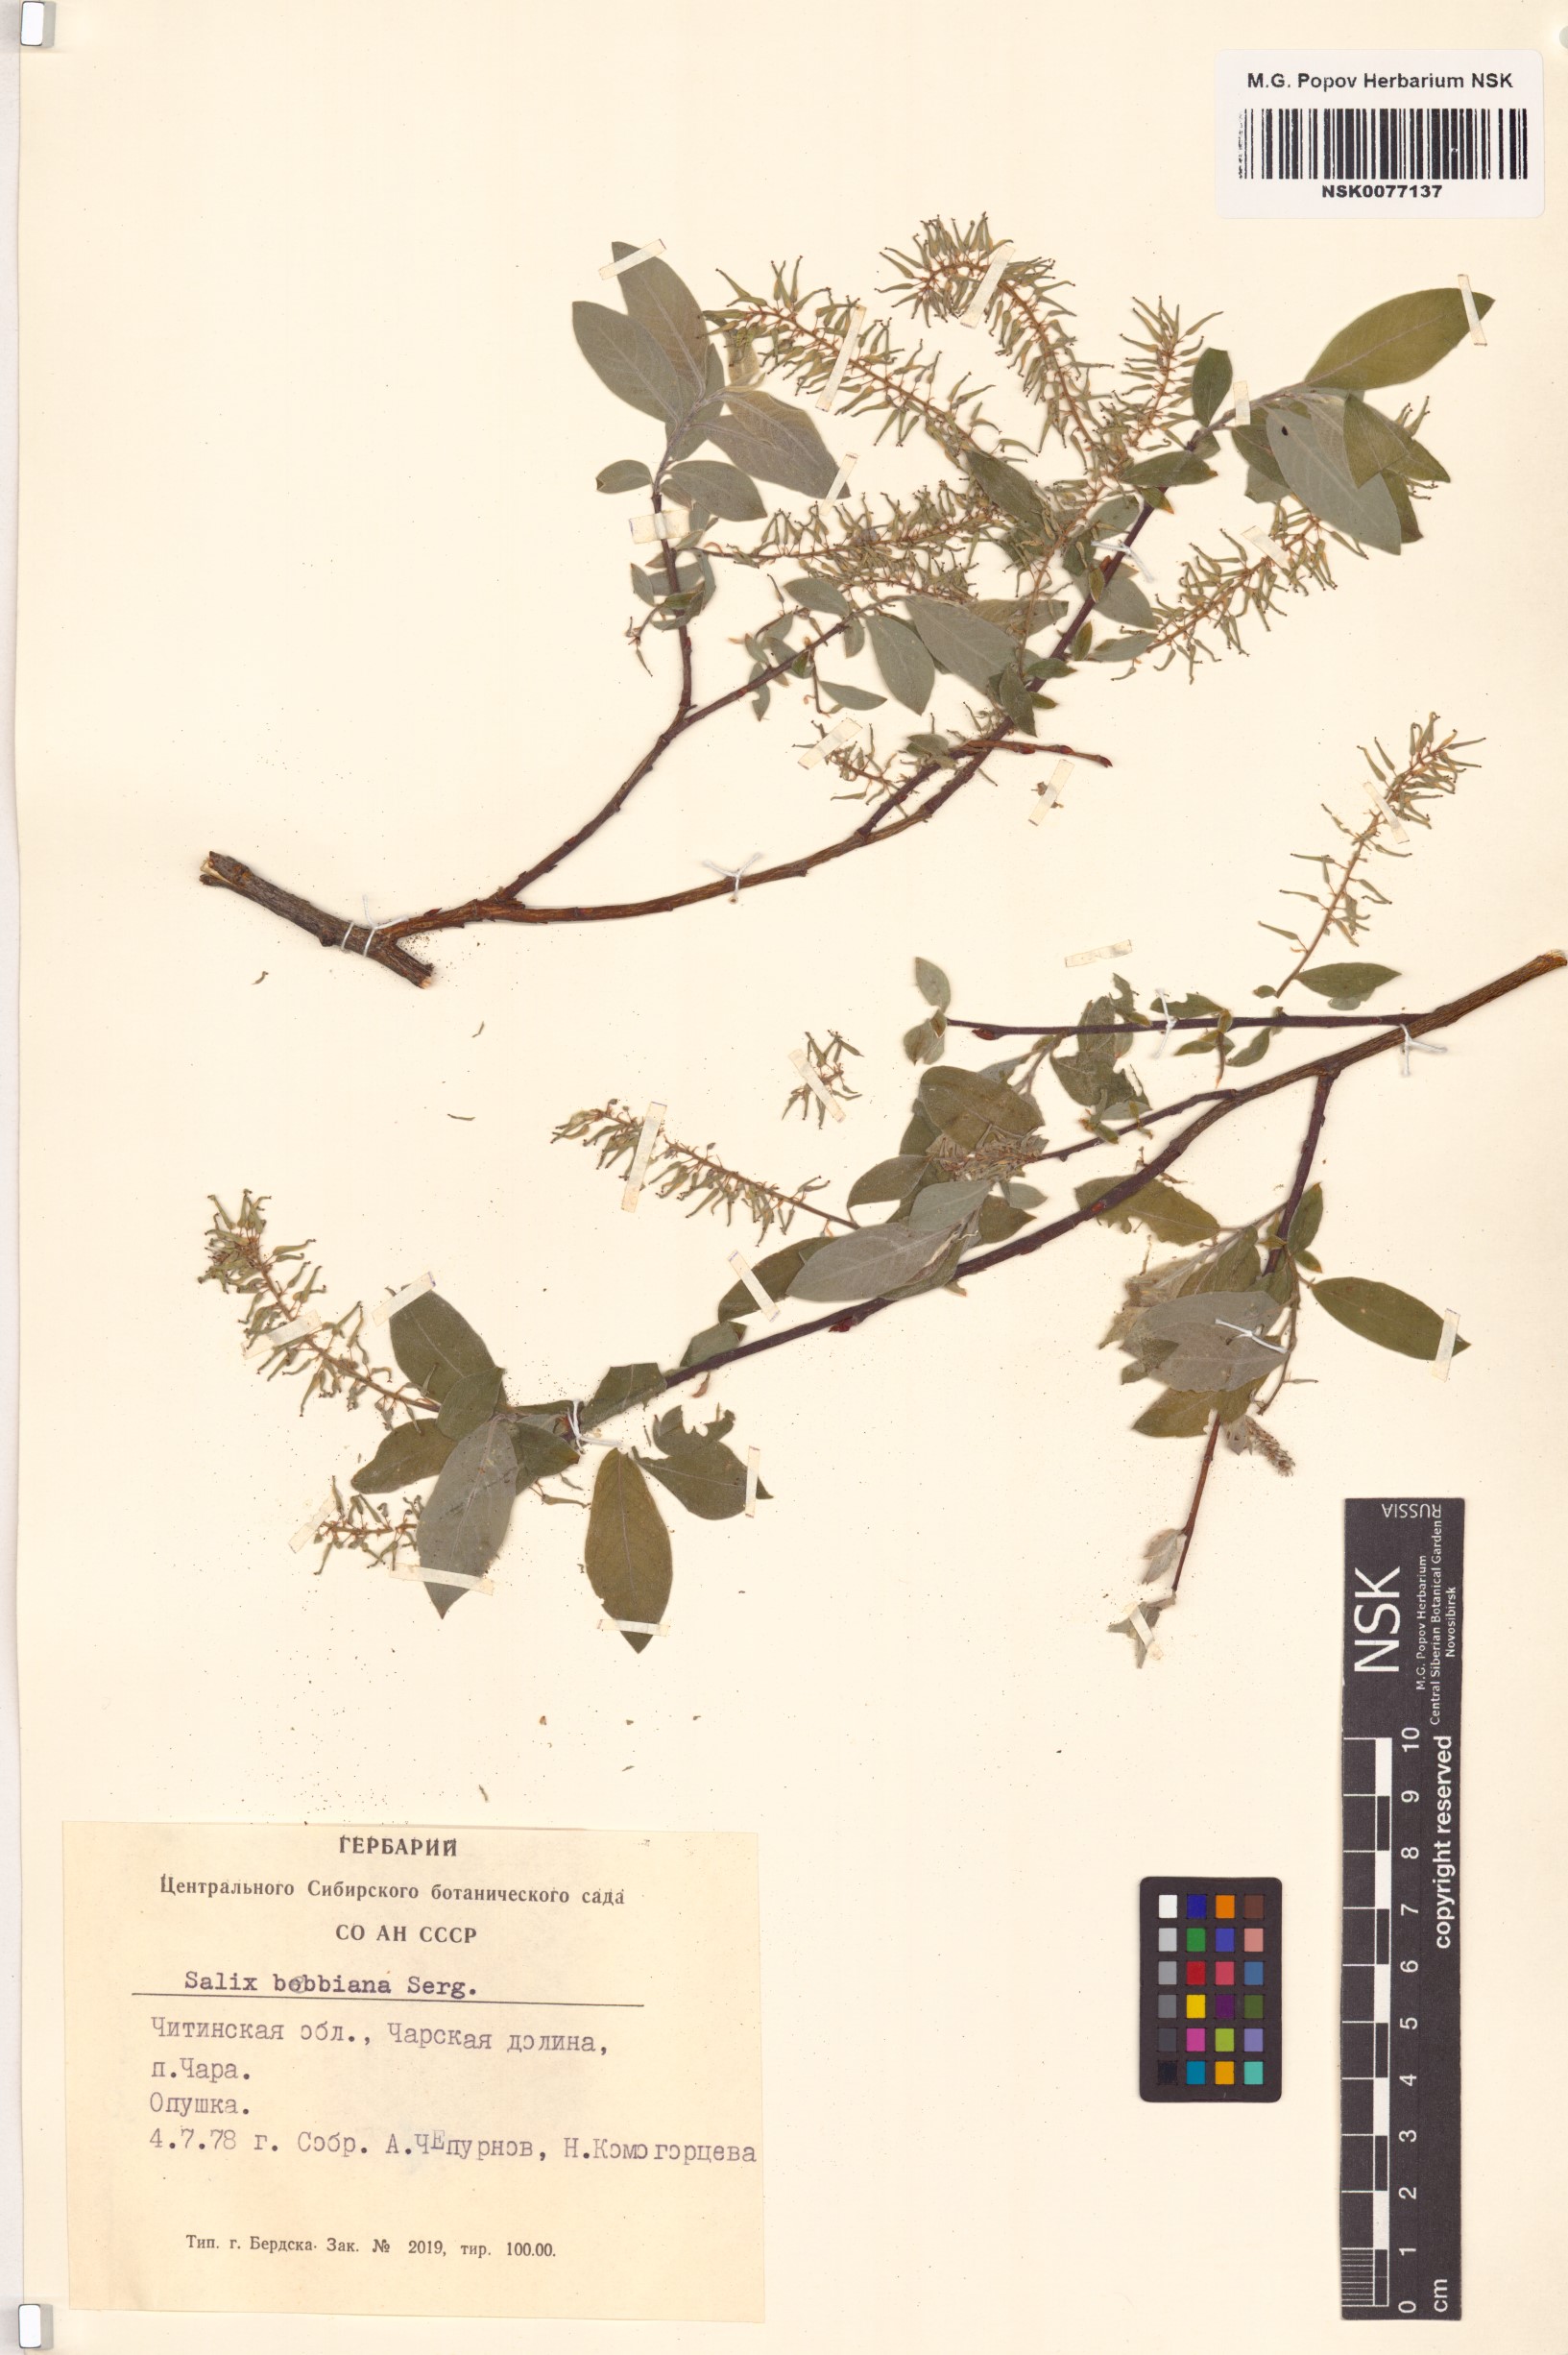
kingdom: Plantae
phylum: Tracheophyta
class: Magnoliopsida
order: Malpighiales
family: Salicaceae
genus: Salix
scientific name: Salix bebbiana
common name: Bebb's willow
